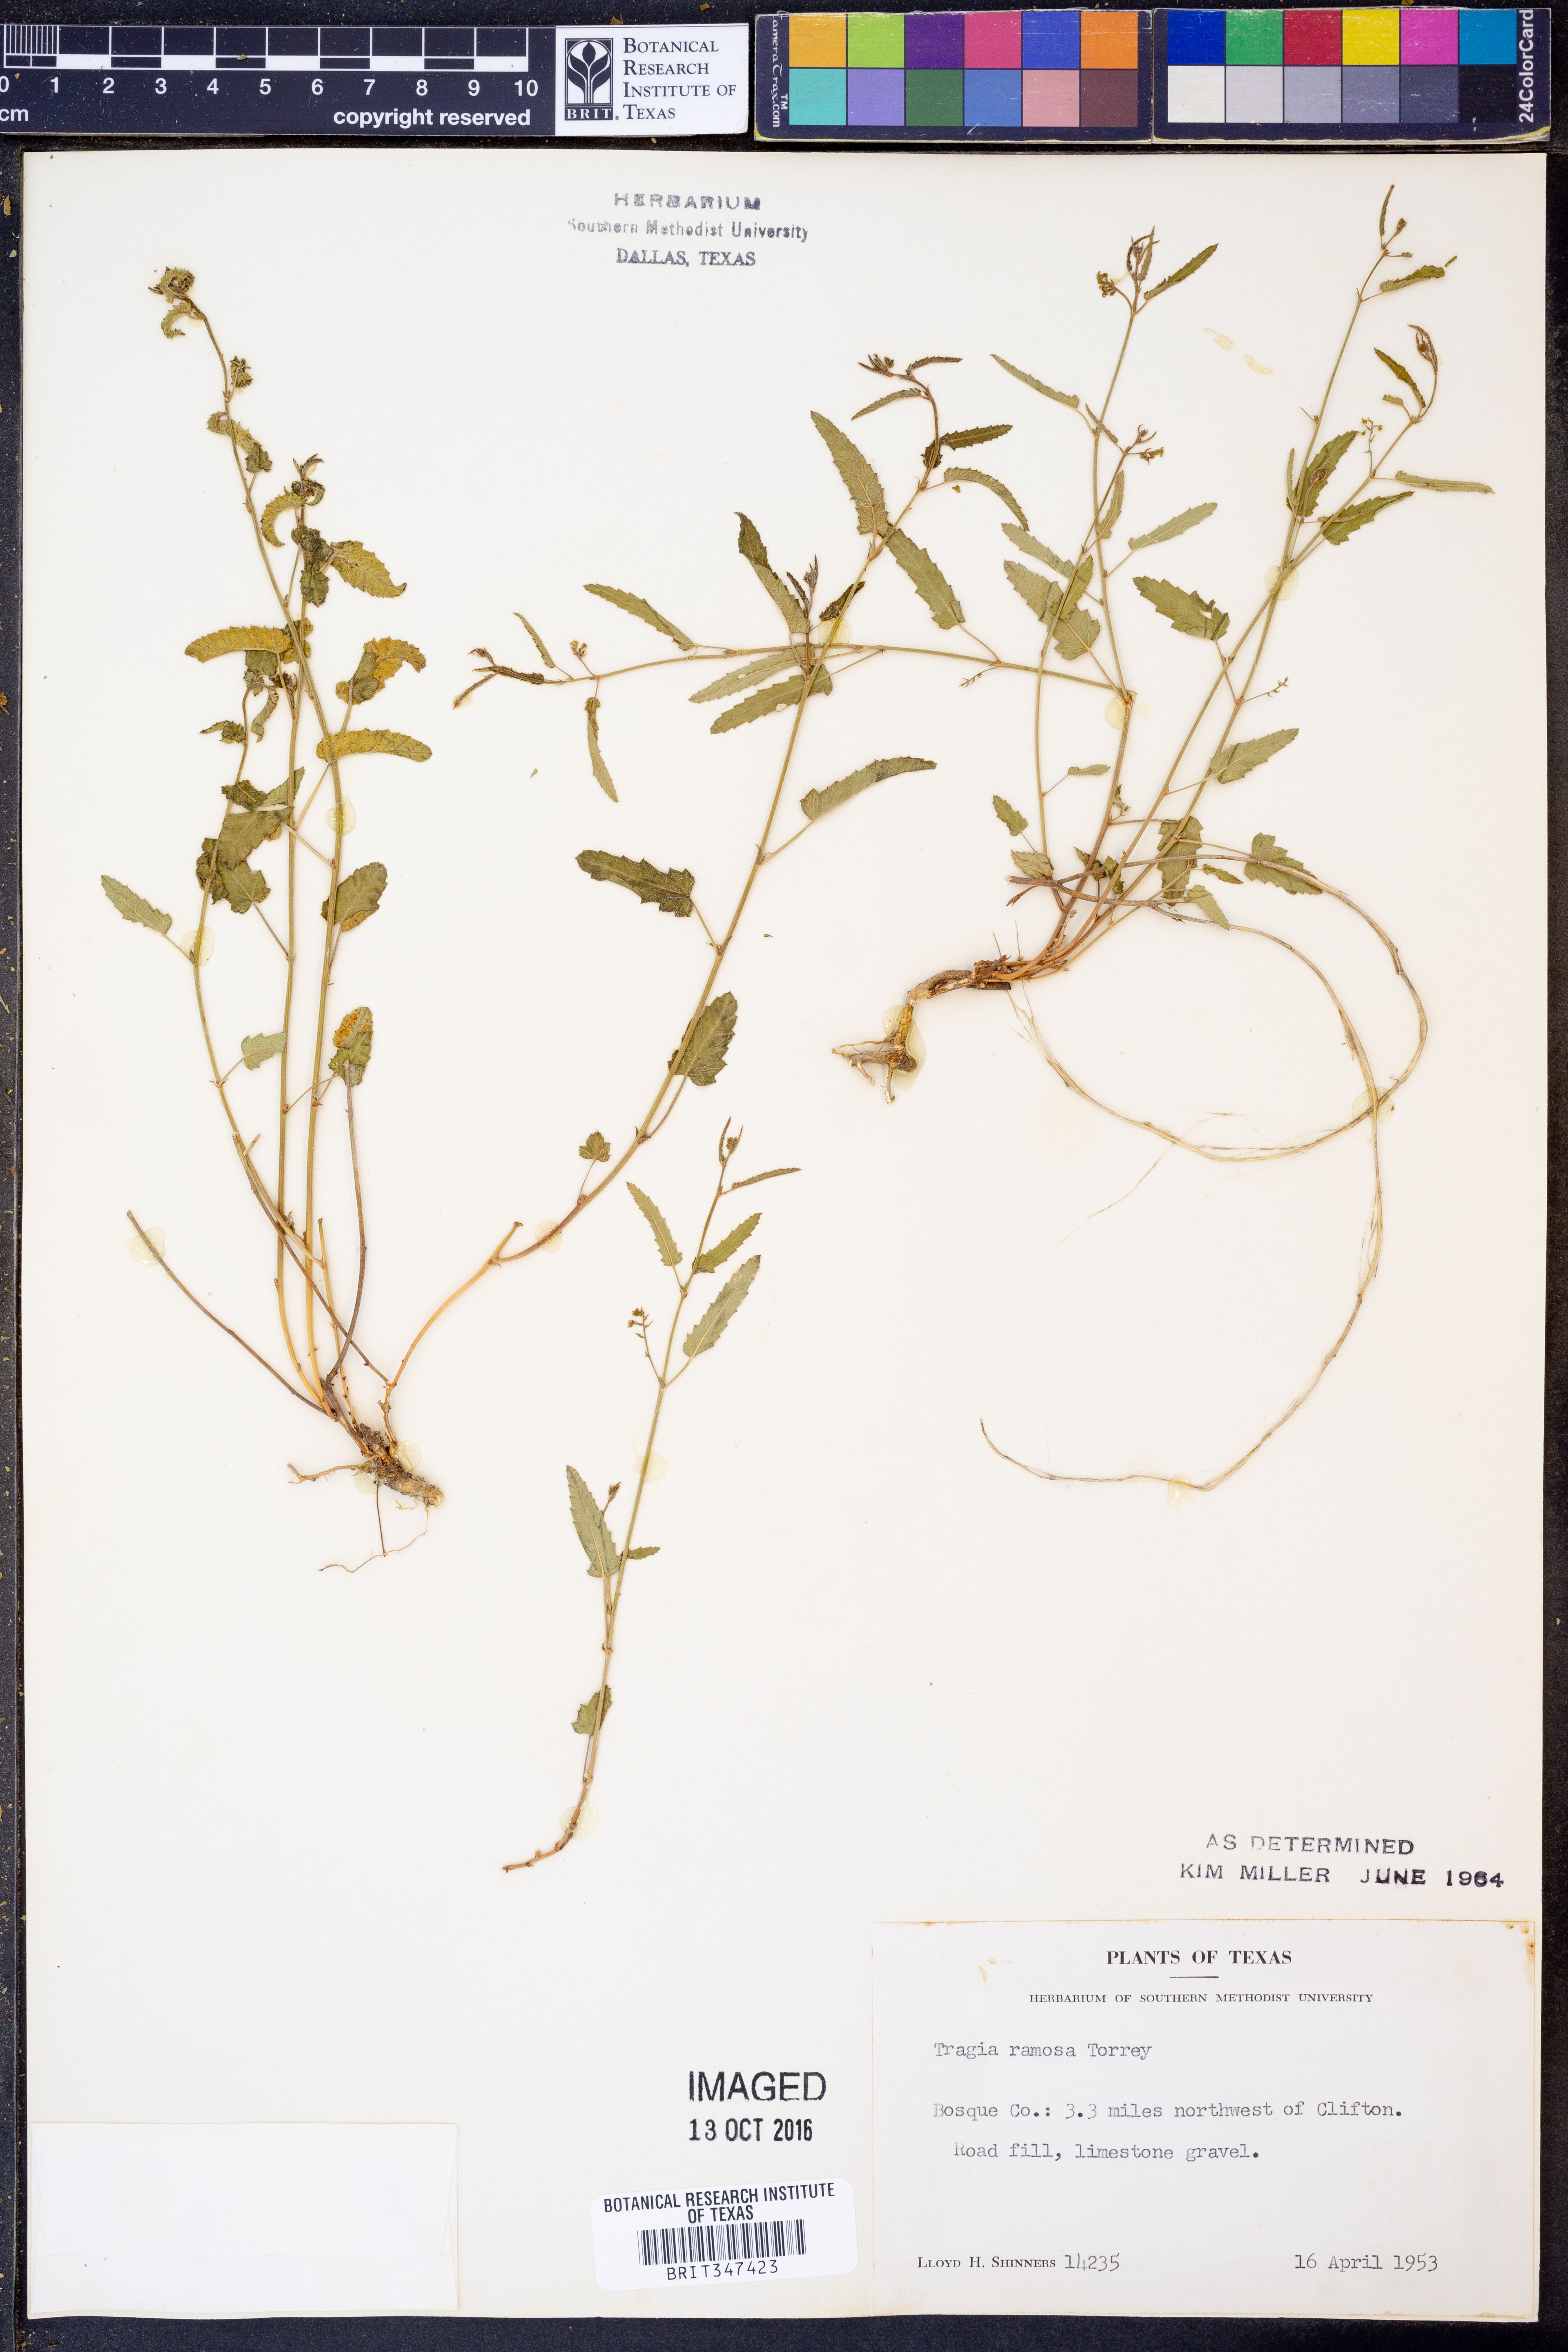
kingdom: Plantae
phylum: Tracheophyta
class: Magnoliopsida
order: Malpighiales
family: Euphorbiaceae
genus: Tragia
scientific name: Tragia ramosa
